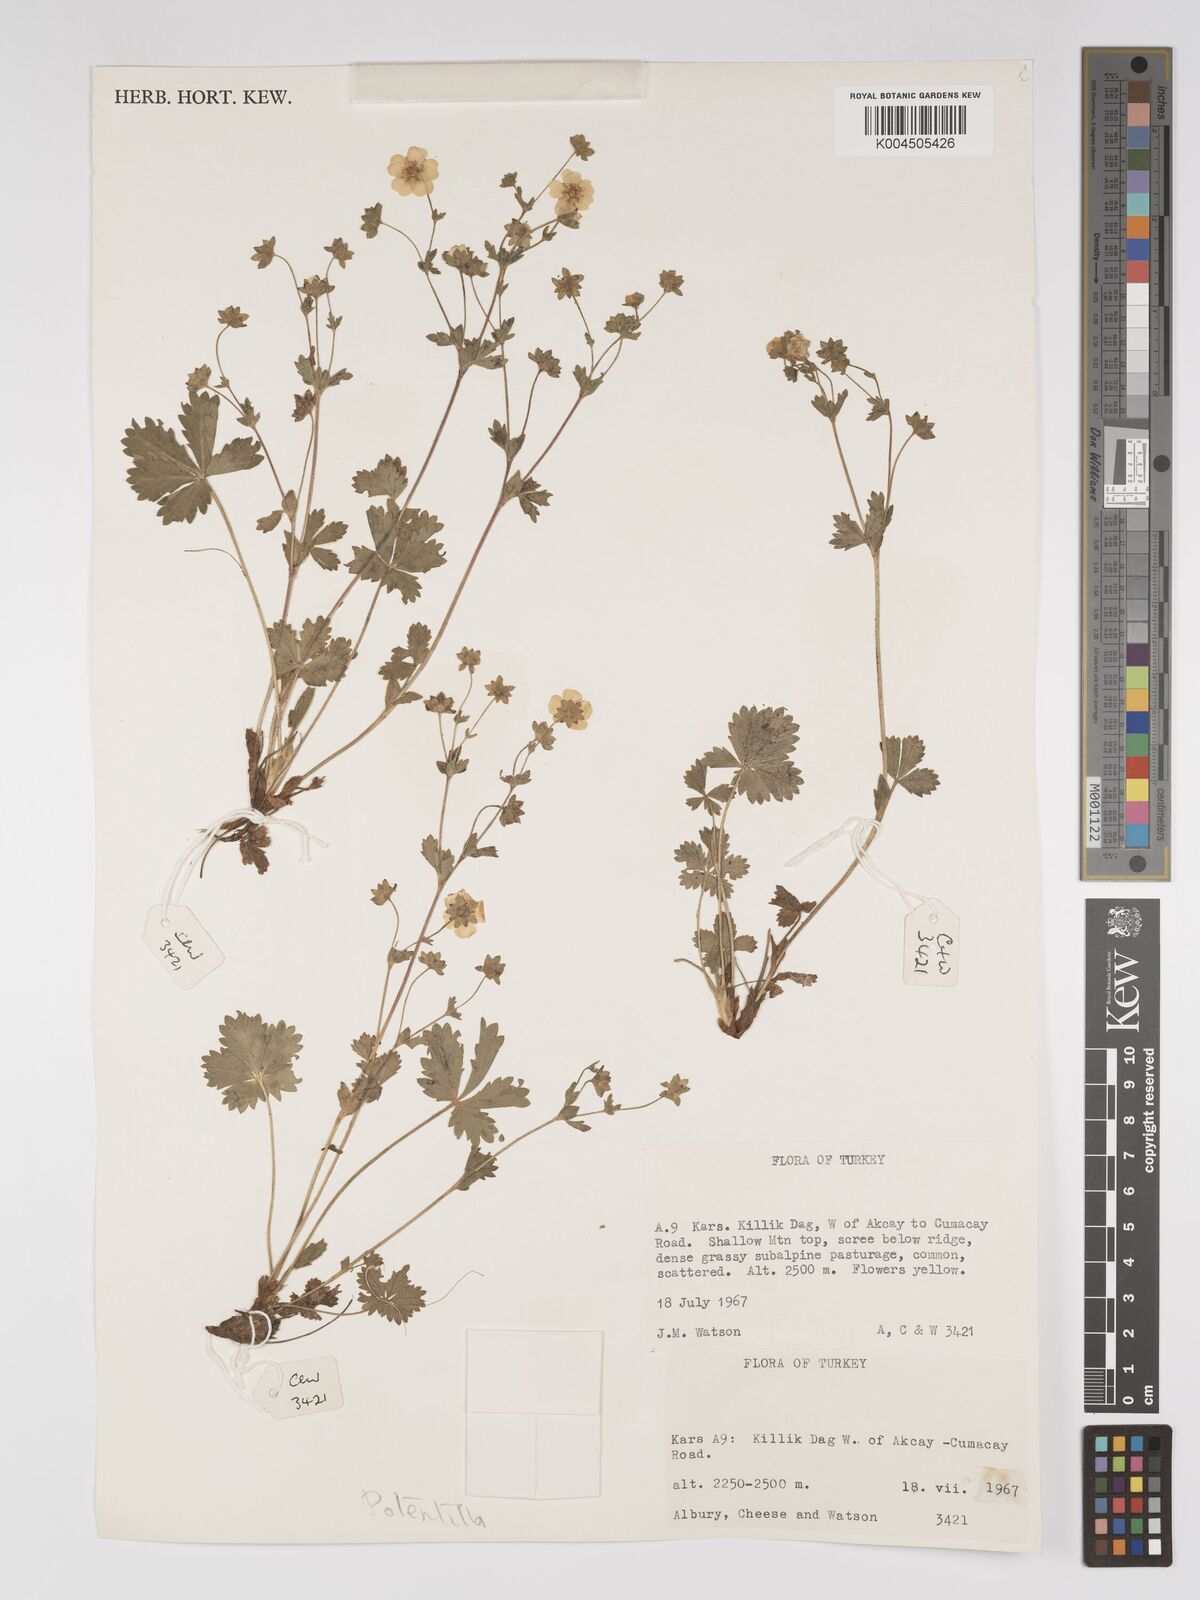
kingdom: Plantae
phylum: Tracheophyta
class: Magnoliopsida
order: Rosales
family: Rosaceae
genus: Potentilla
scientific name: Potentilla
